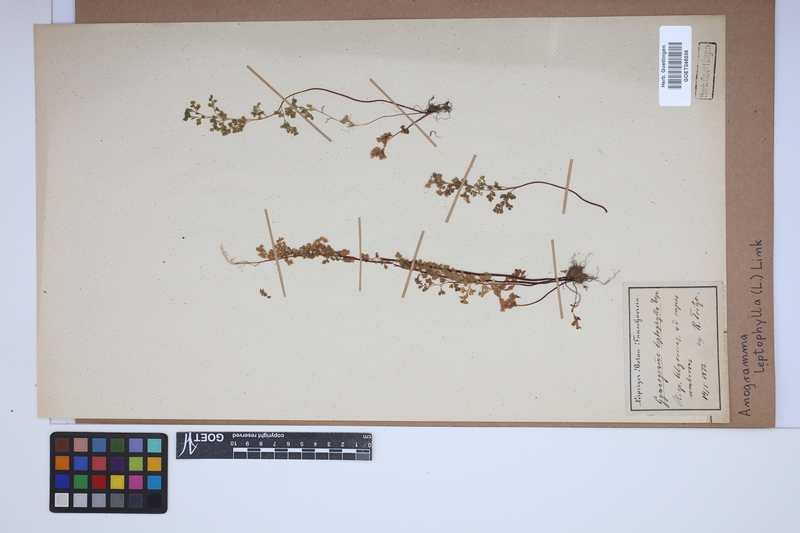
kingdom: Plantae
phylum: Tracheophyta
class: Polypodiopsida
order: Polypodiales
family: Pteridaceae
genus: Anogramma
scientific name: Anogramma leptophylla
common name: Jersey fern
